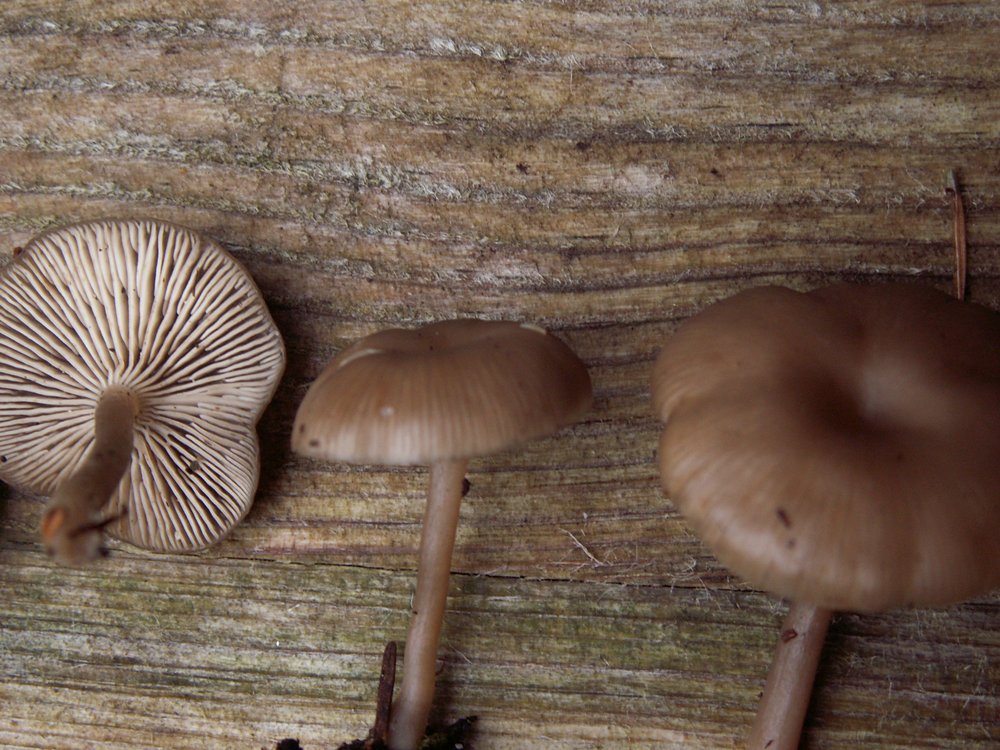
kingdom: Fungi
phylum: Basidiomycota
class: Agaricomycetes
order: Agaricales
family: Tricholomataceae
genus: Myxomphalia
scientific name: Myxomphalia maura
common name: kulhat
